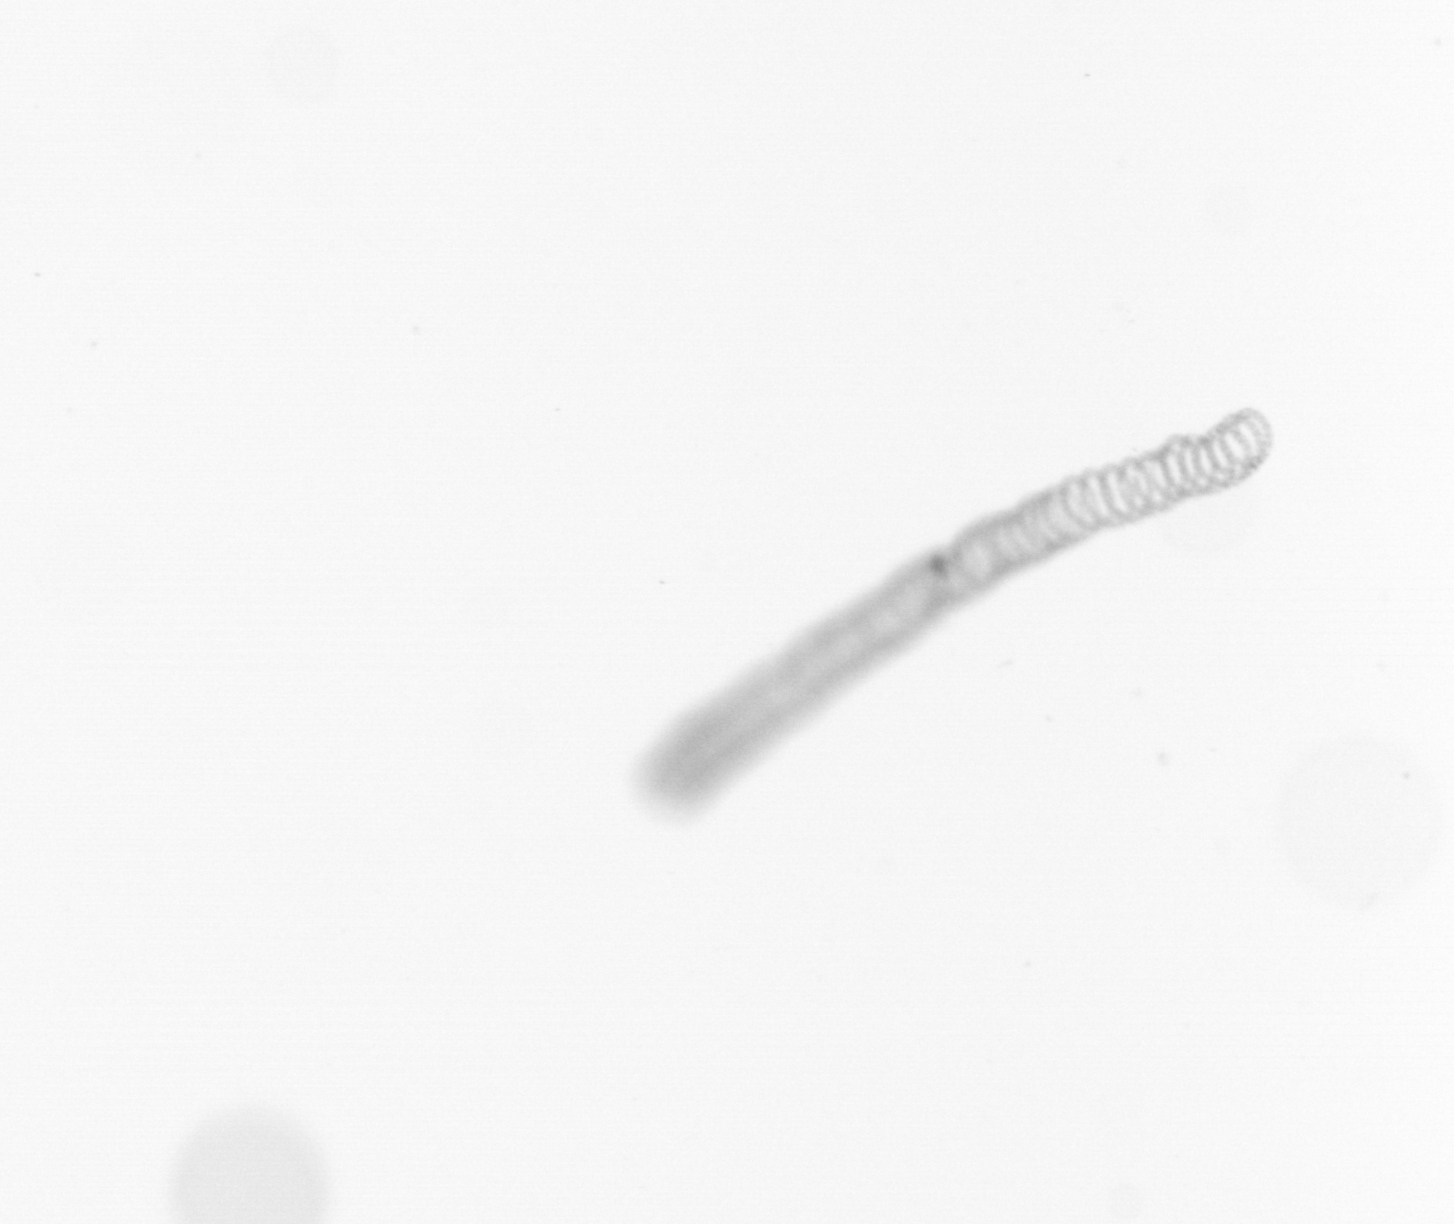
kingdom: Chromista
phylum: Ochrophyta
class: Bacillariophyceae
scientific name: Bacillariophyceae
